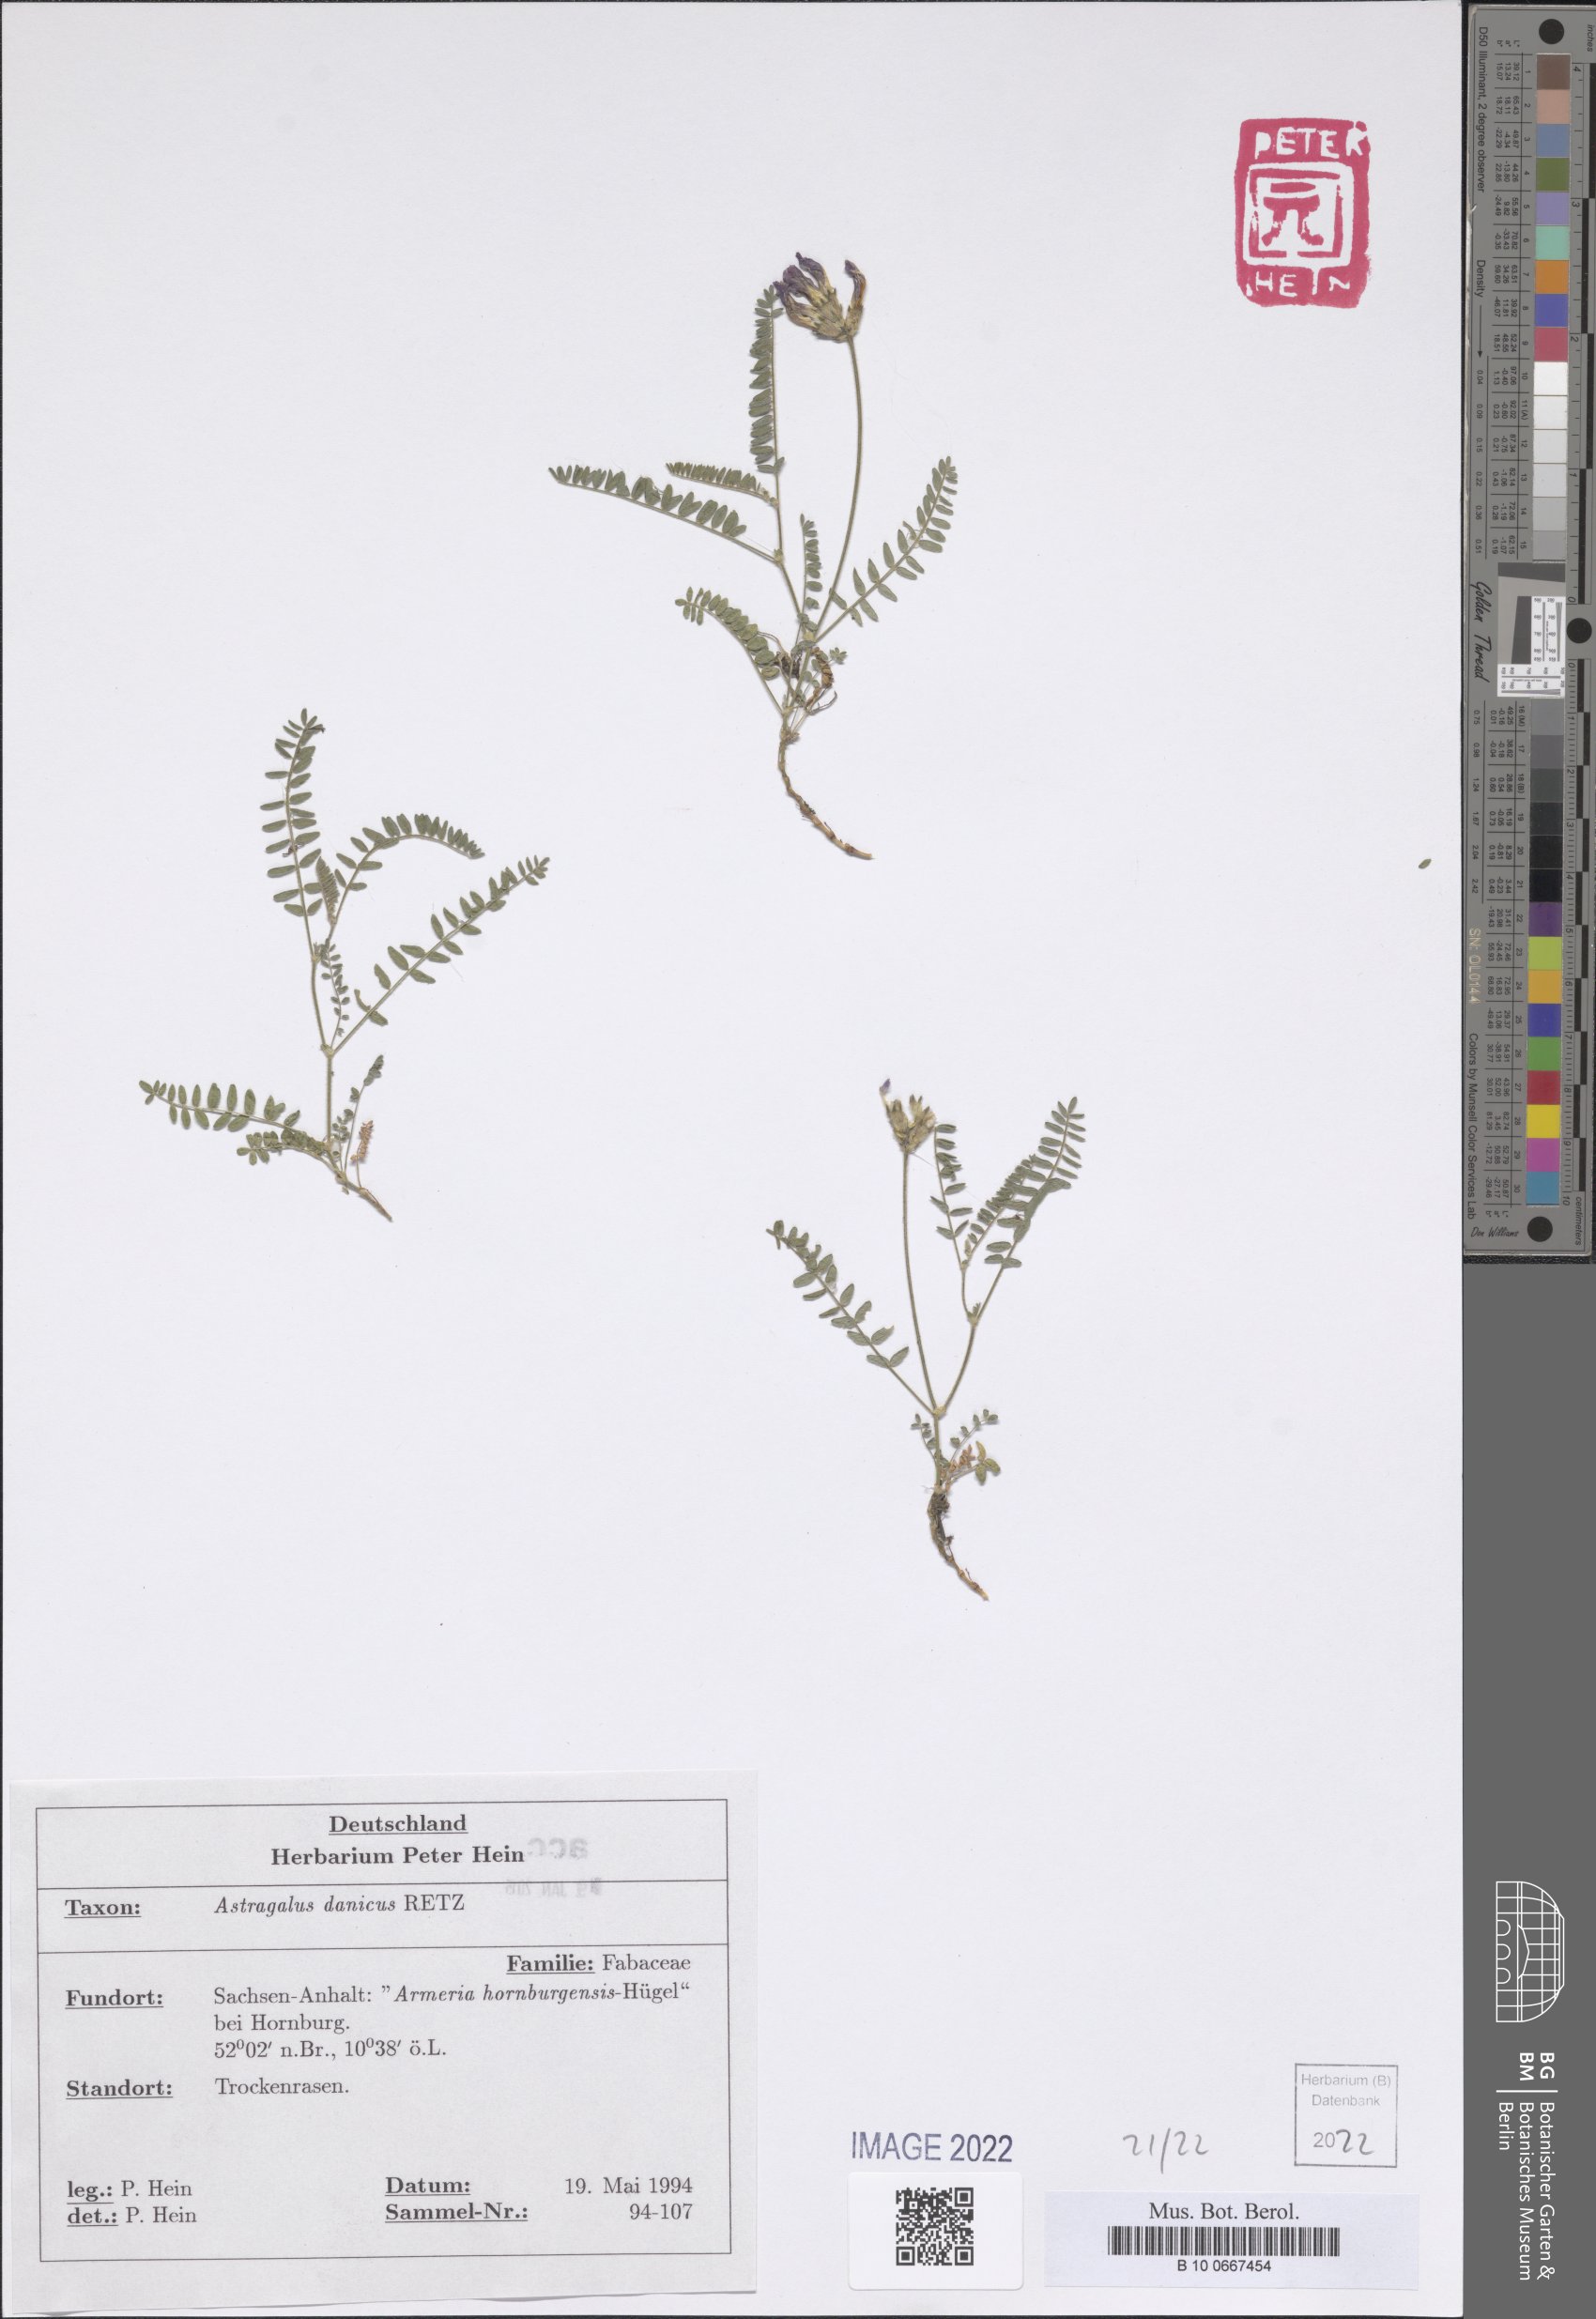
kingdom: Plantae
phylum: Tracheophyta
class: Magnoliopsida
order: Fabales
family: Fabaceae
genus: Astragalus
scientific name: Astragalus danicus
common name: Purple milk-vetch
